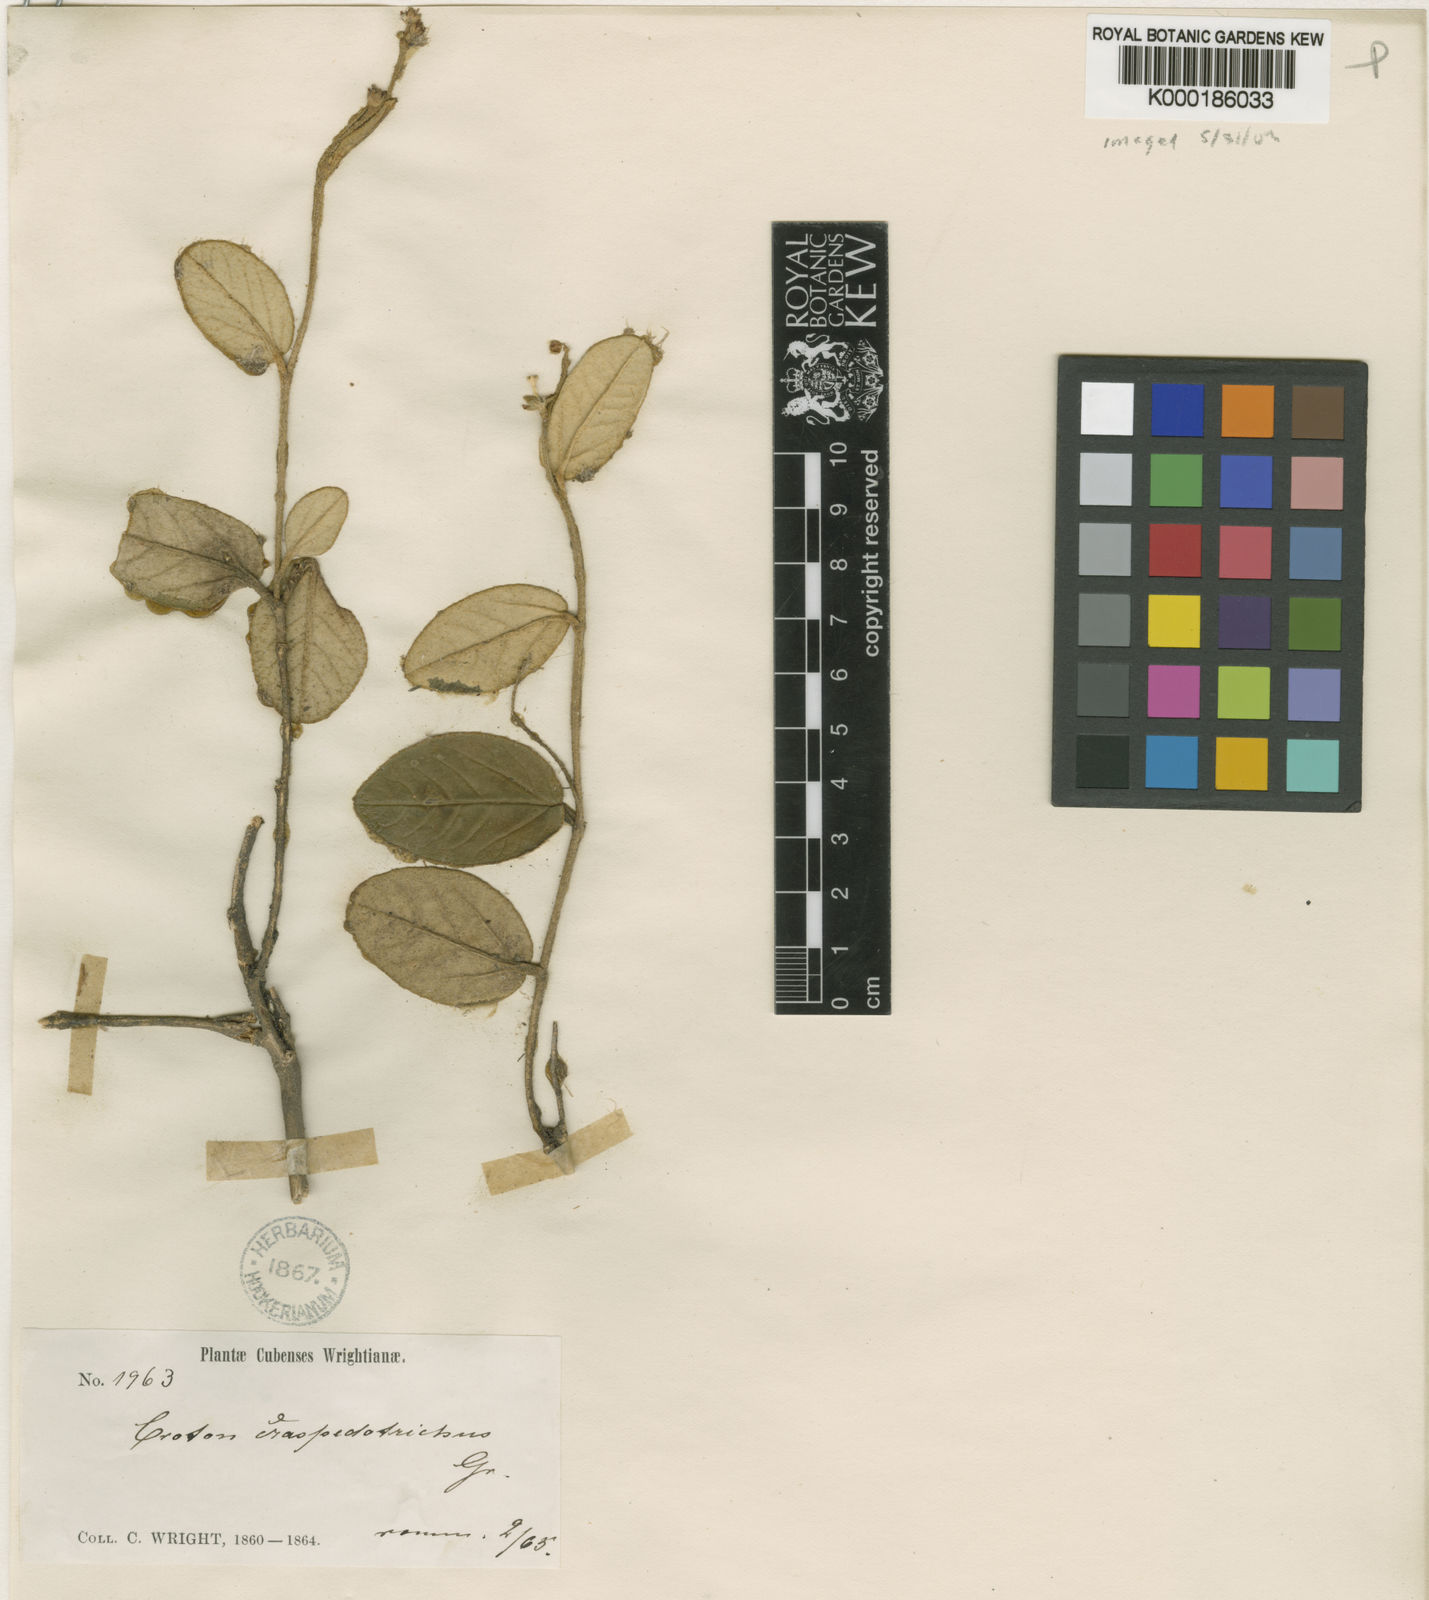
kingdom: Plantae
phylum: Tracheophyta
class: Magnoliopsida
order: Malpighiales
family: Euphorbiaceae
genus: Croton
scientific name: Croton craspedotrichus
